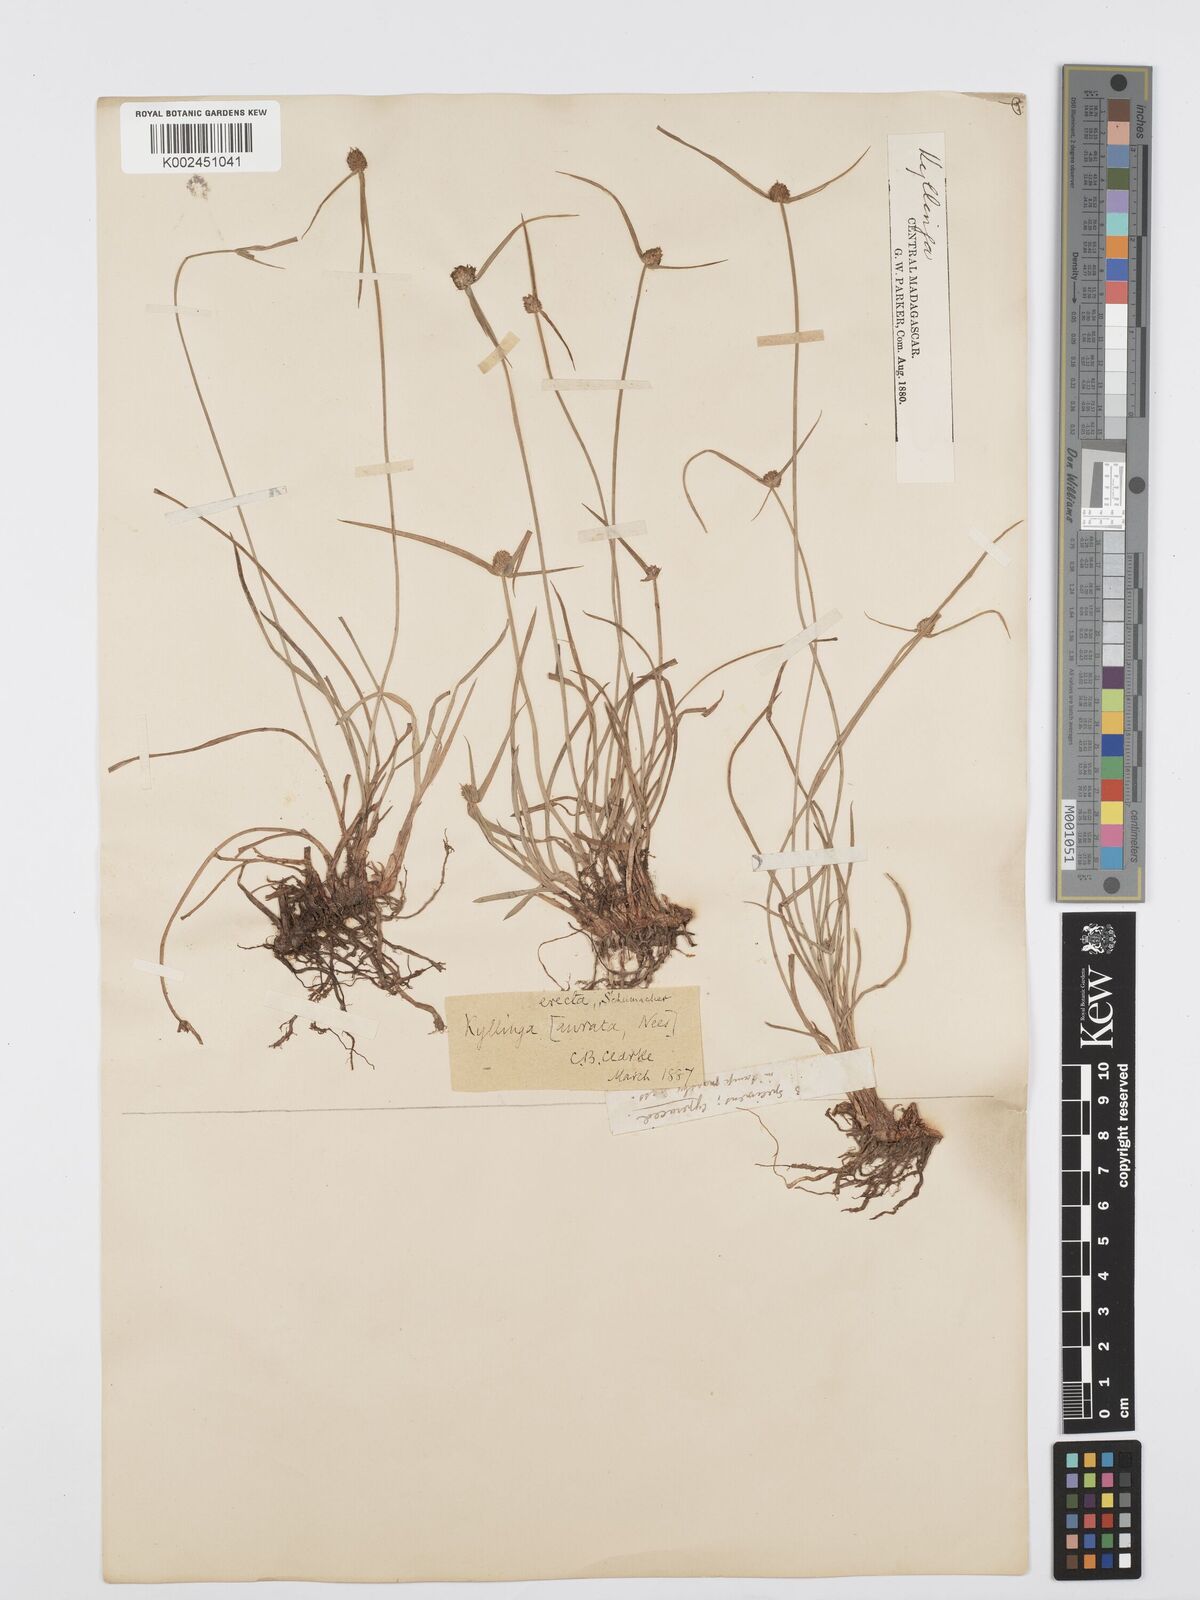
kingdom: Plantae
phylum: Tracheophyta
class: Liliopsida
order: Poales
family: Cyperaceae
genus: Cyperus
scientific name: Cyperus erectus
